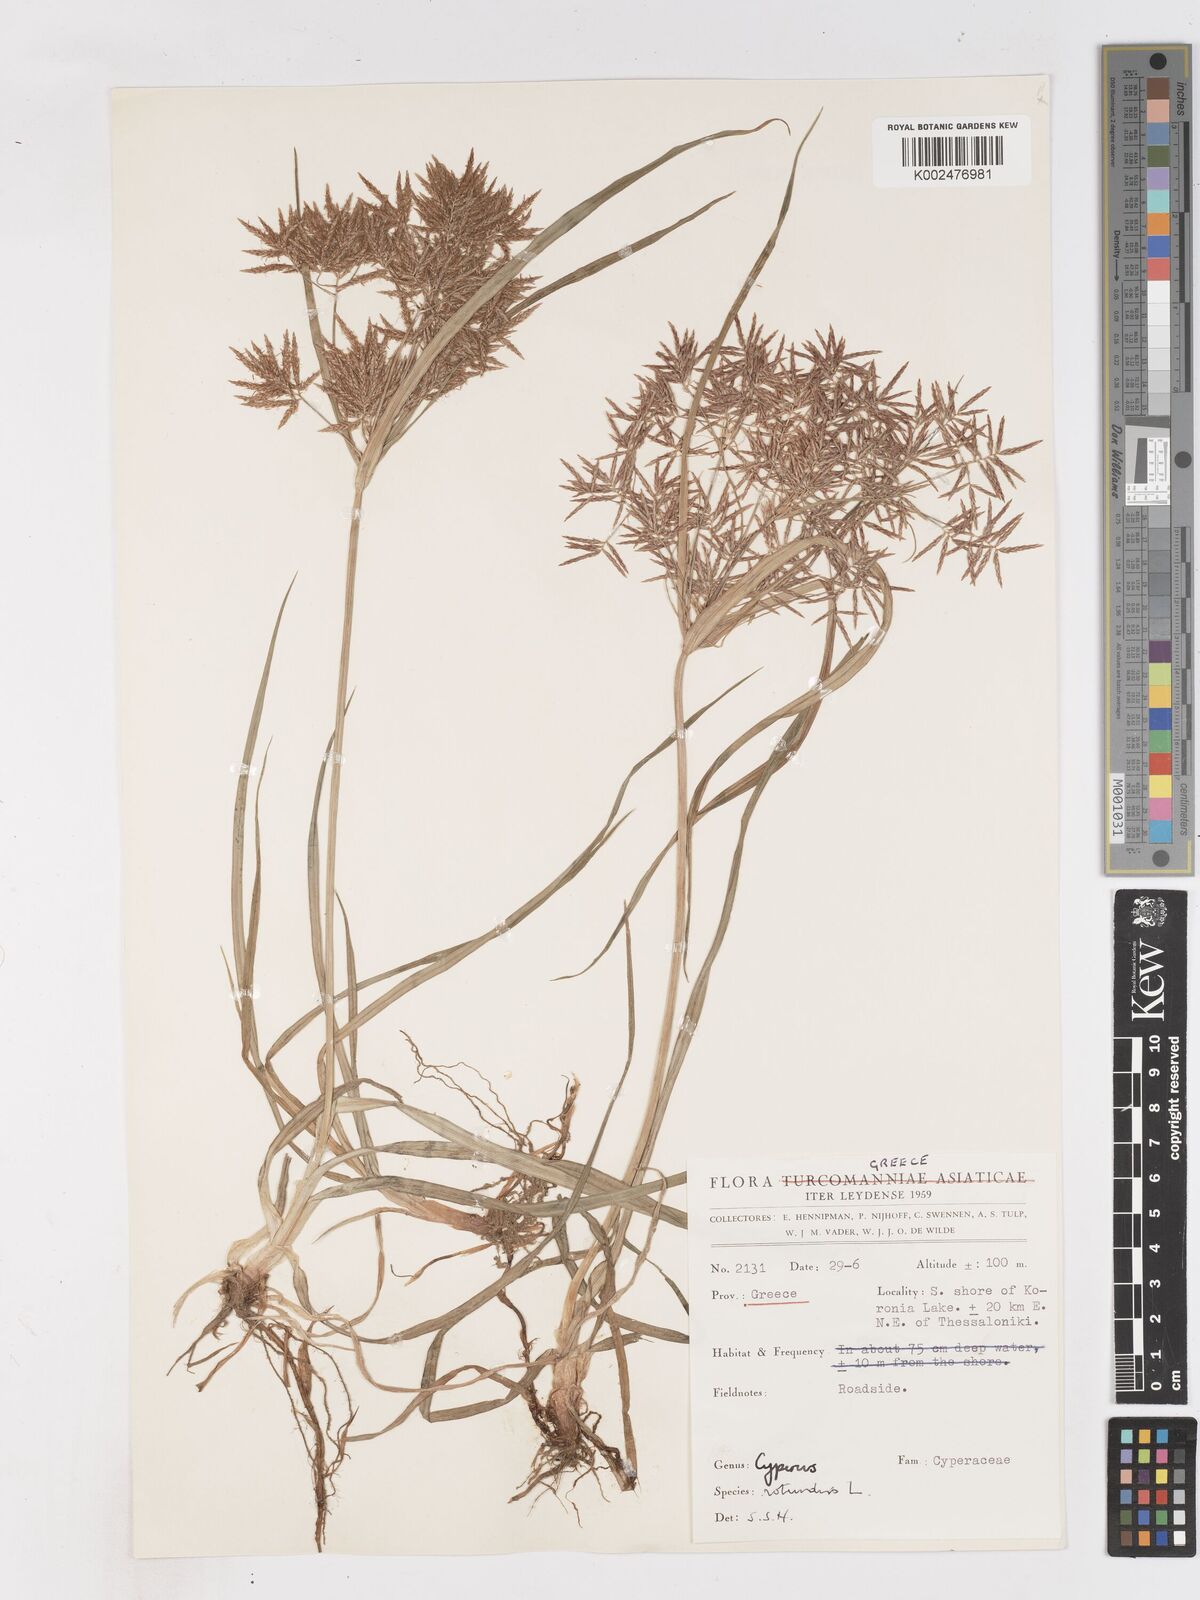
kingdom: Plantae
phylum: Tracheophyta
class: Liliopsida
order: Poales
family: Cyperaceae
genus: Cyperus
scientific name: Cyperus rotundus
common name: Nutgrass
